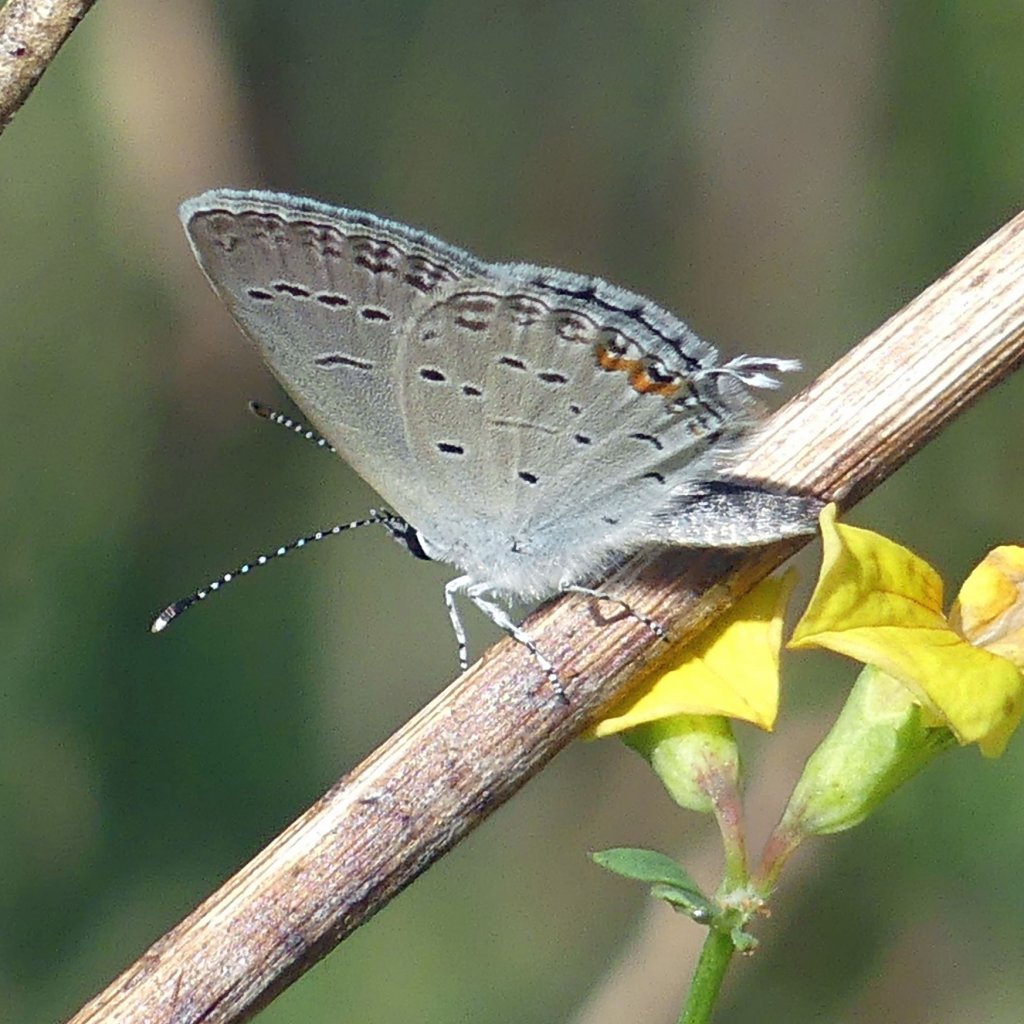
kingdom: Animalia
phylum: Arthropoda
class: Insecta
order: Lepidoptera
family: Lycaenidae
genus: Elkalyce
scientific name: Elkalyce comyntas
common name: Eastern Tailed-Blue
